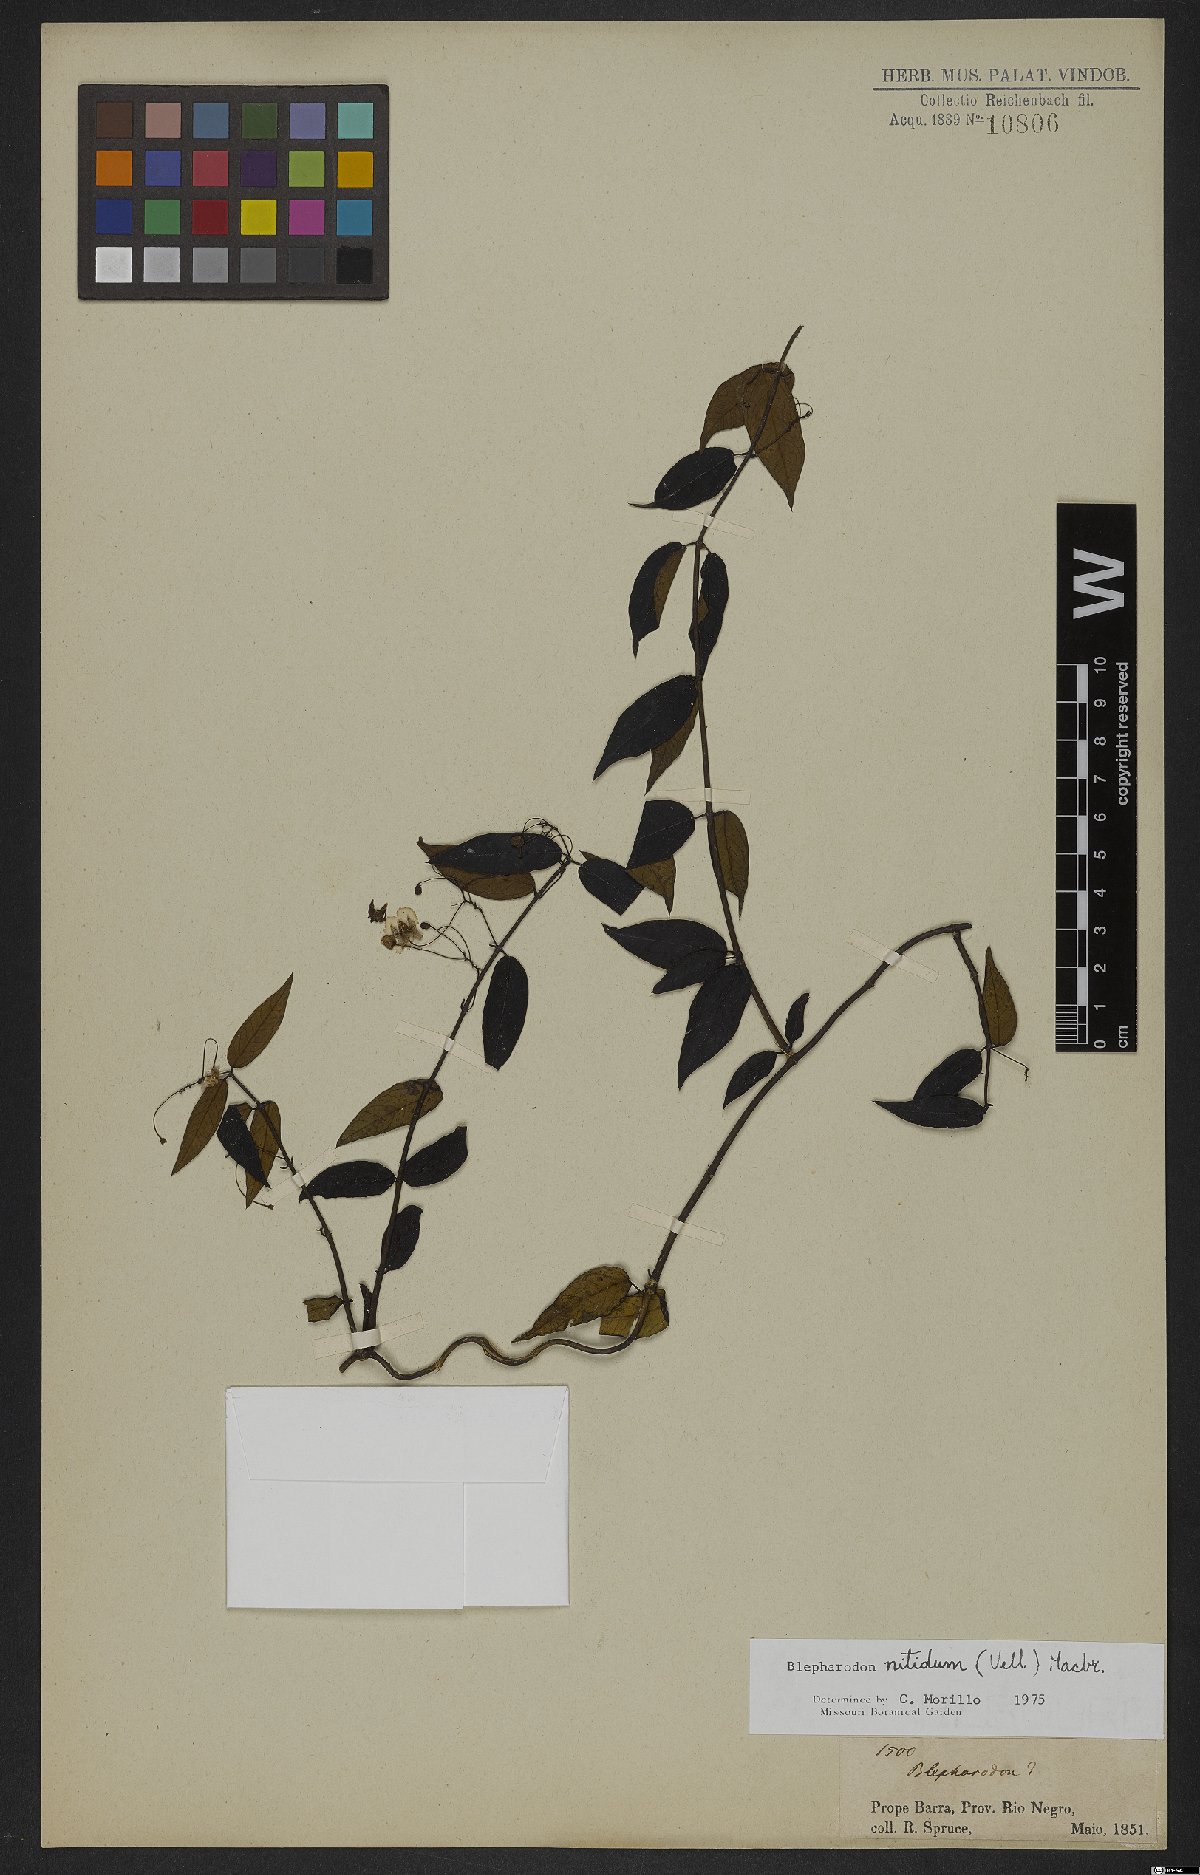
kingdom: Plantae
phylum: Tracheophyta
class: Magnoliopsida
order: Gentianales
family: Apocynaceae
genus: Blepharodon
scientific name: Blepharodon pictum
